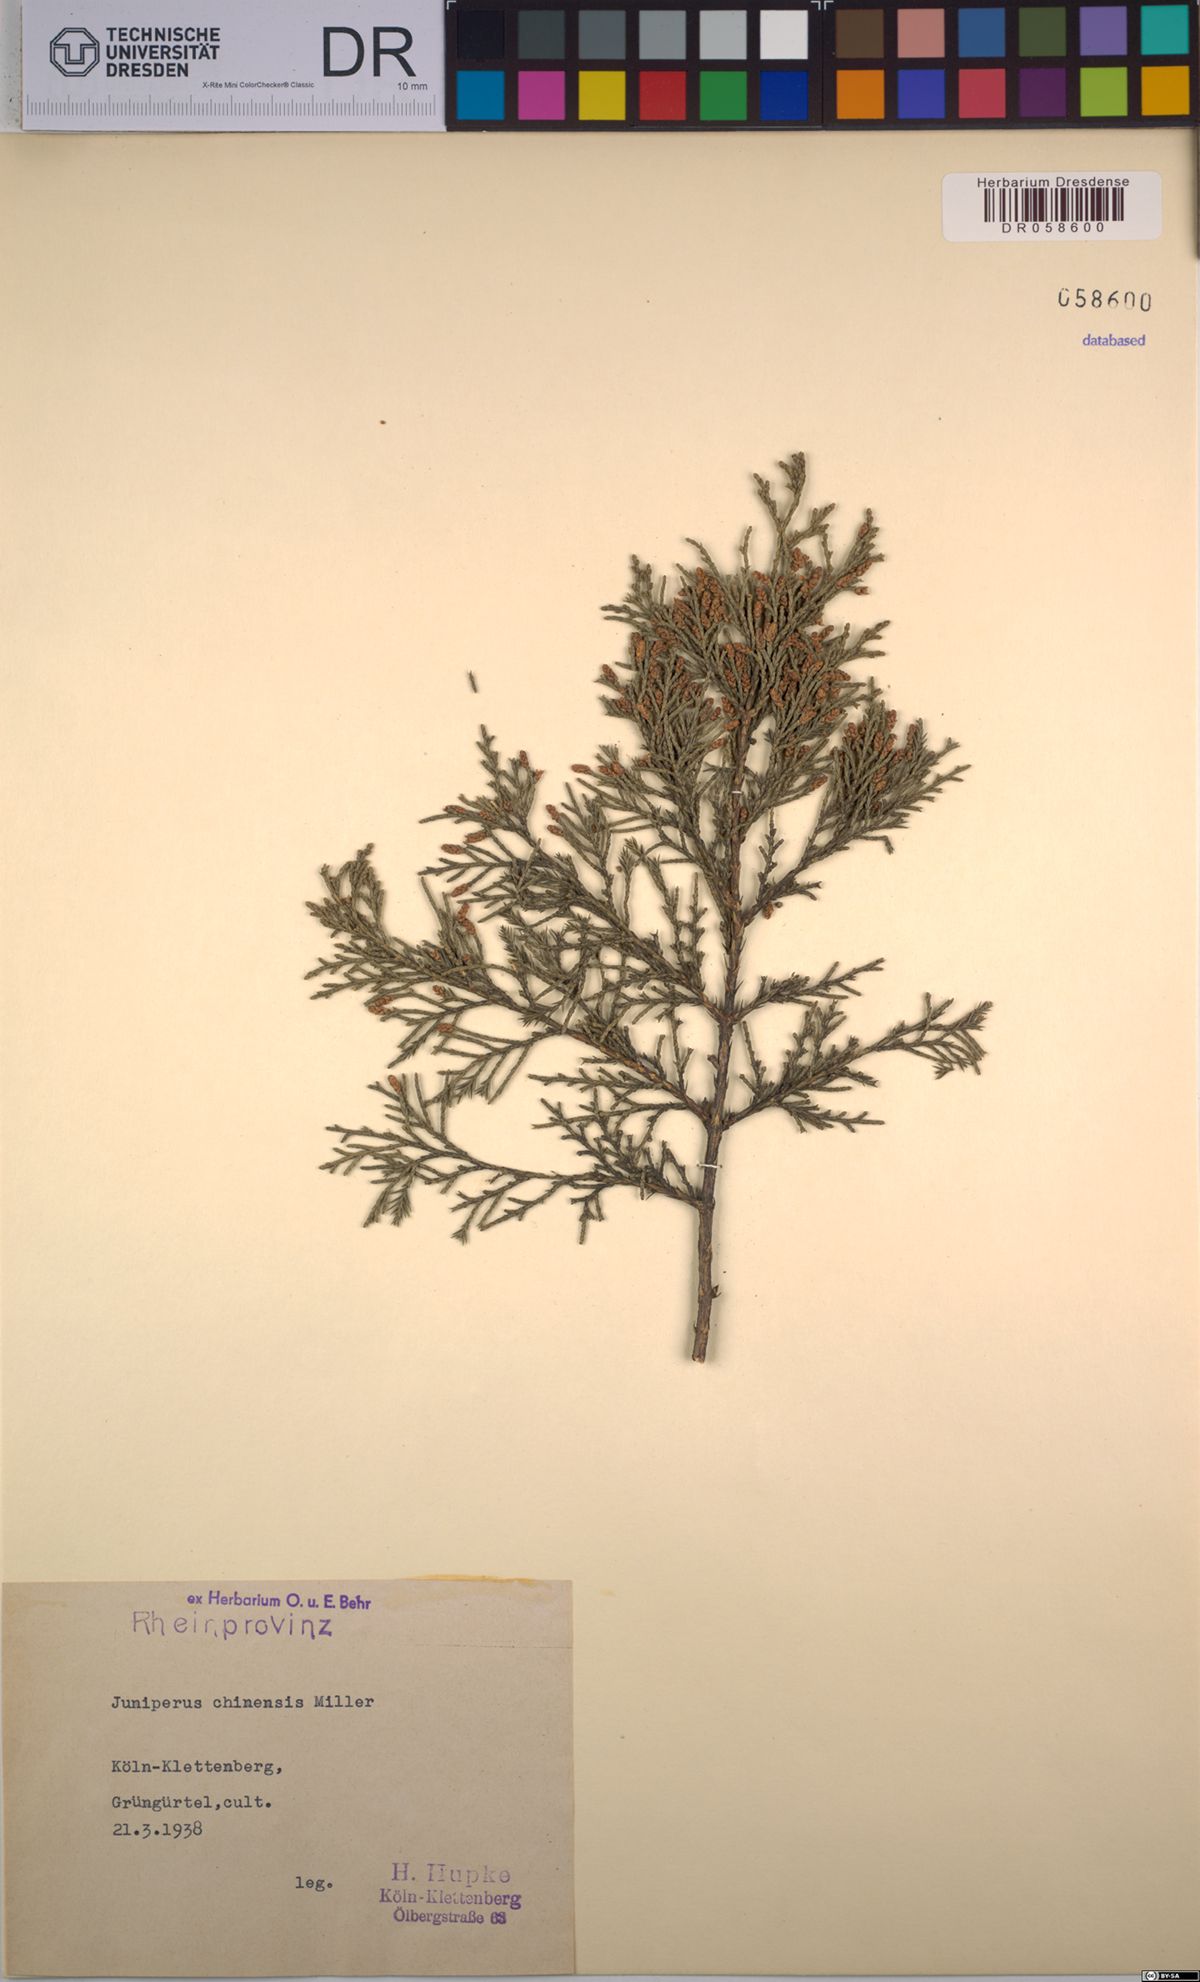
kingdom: Plantae
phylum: Tracheophyta
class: Pinopsida
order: Pinales
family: Cupressaceae
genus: Juniperus
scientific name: Juniperus chinensis
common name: Chinese juniper
